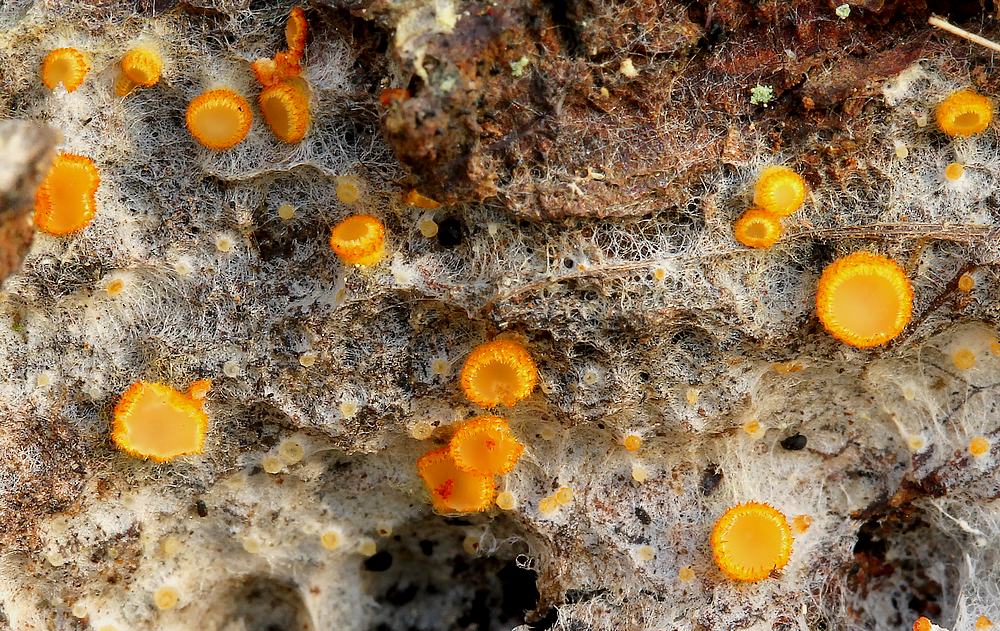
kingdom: Fungi
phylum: Ascomycota
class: Leotiomycetes
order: Helotiales
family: Arachnopezizaceae
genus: Arachnopeziza
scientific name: Arachnopeziza aurelia
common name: flamme-spindskive
